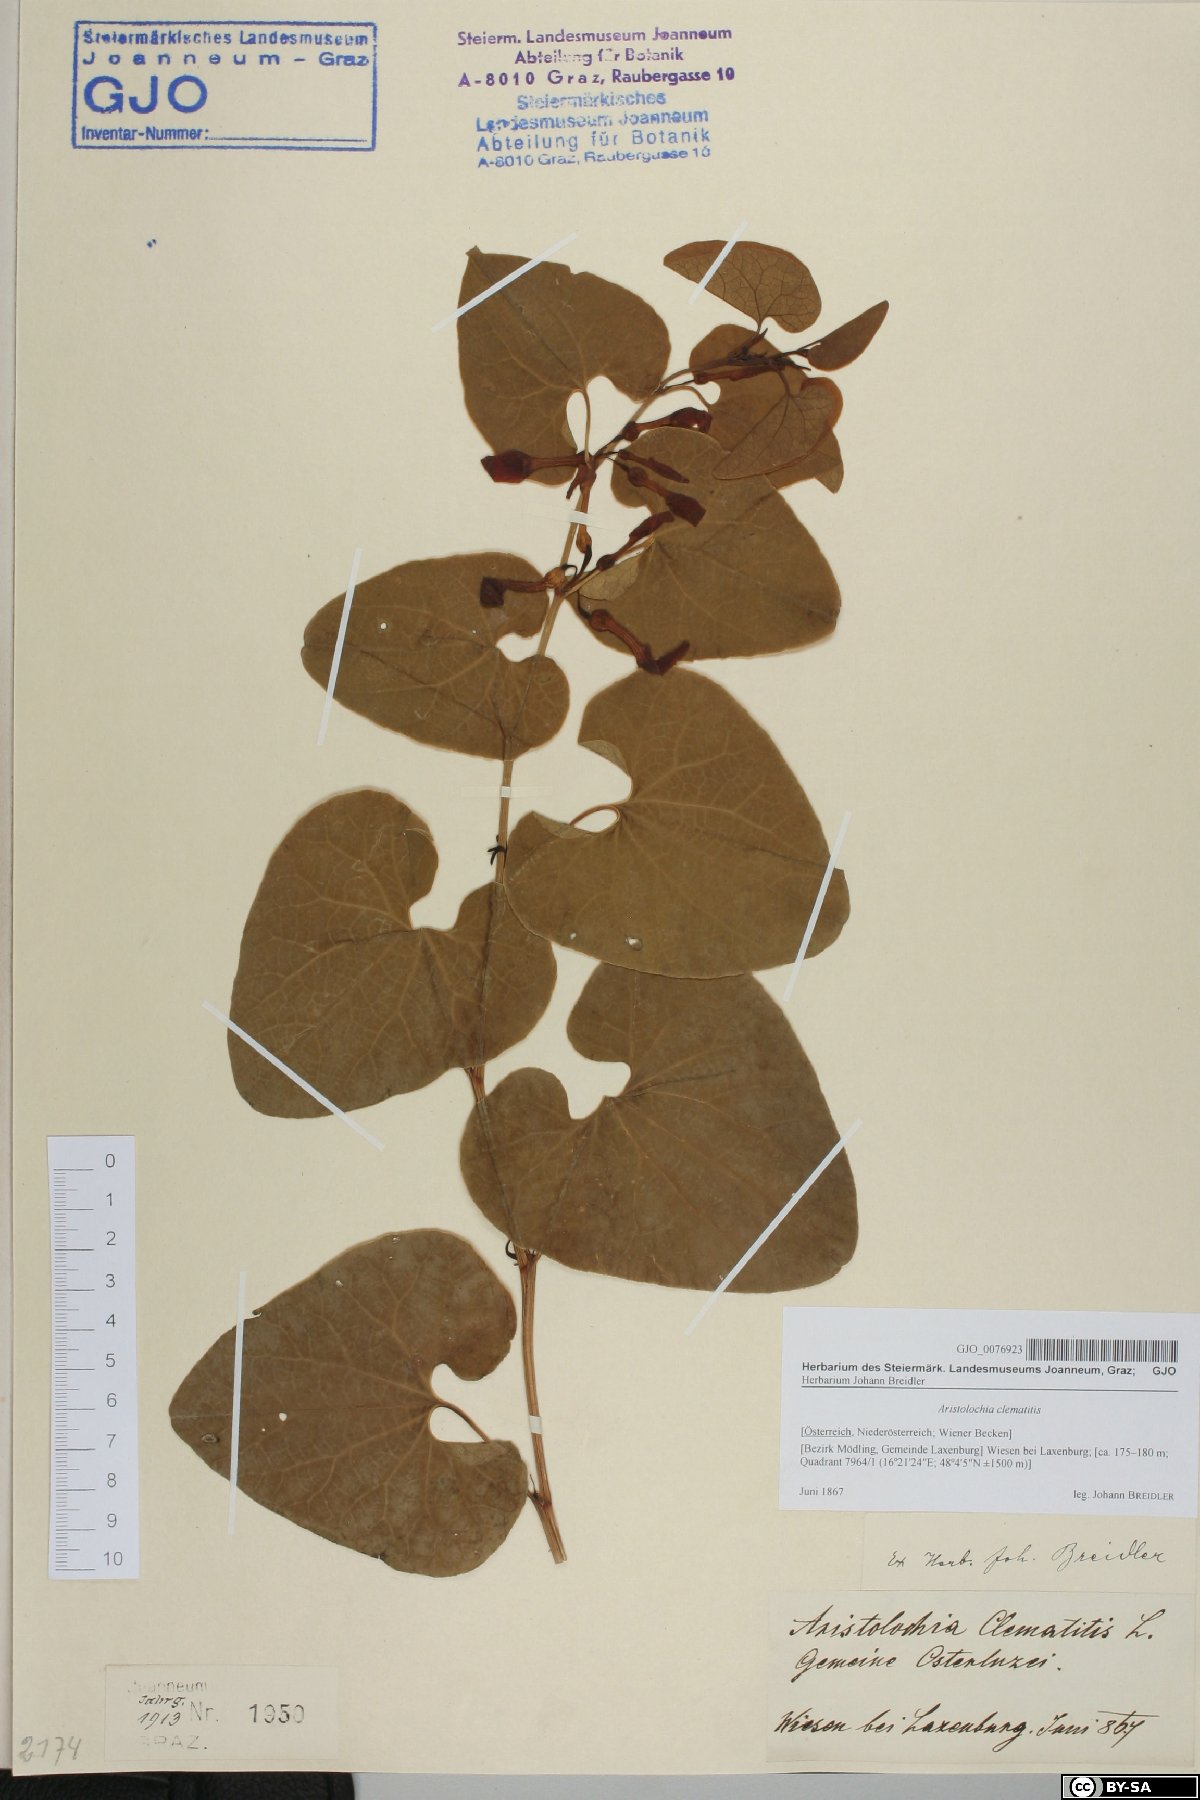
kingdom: Plantae
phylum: Tracheophyta
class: Magnoliopsida
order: Piperales
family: Aristolochiaceae
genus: Aristolochia
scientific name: Aristolochia clematitis
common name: Birthwort
